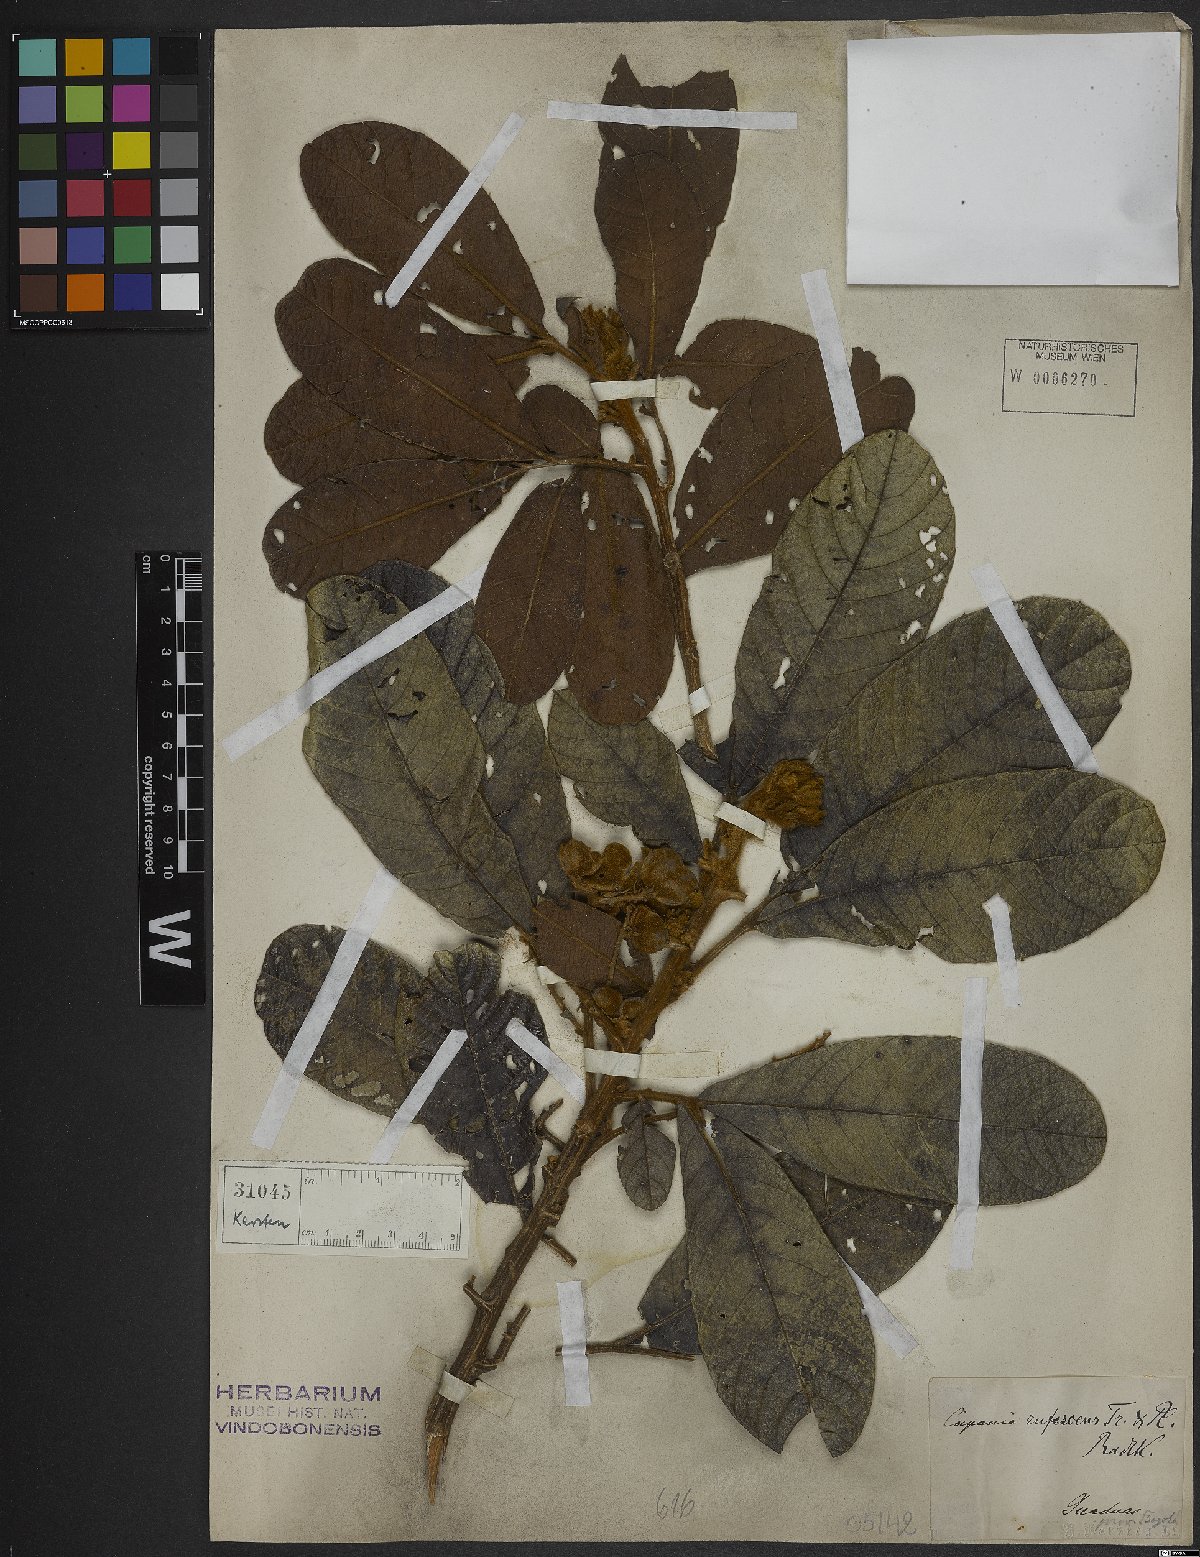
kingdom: Plantae
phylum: Tracheophyta
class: Magnoliopsida
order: Sapindales
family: Sapindaceae
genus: Cupania
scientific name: Cupania rufescens
